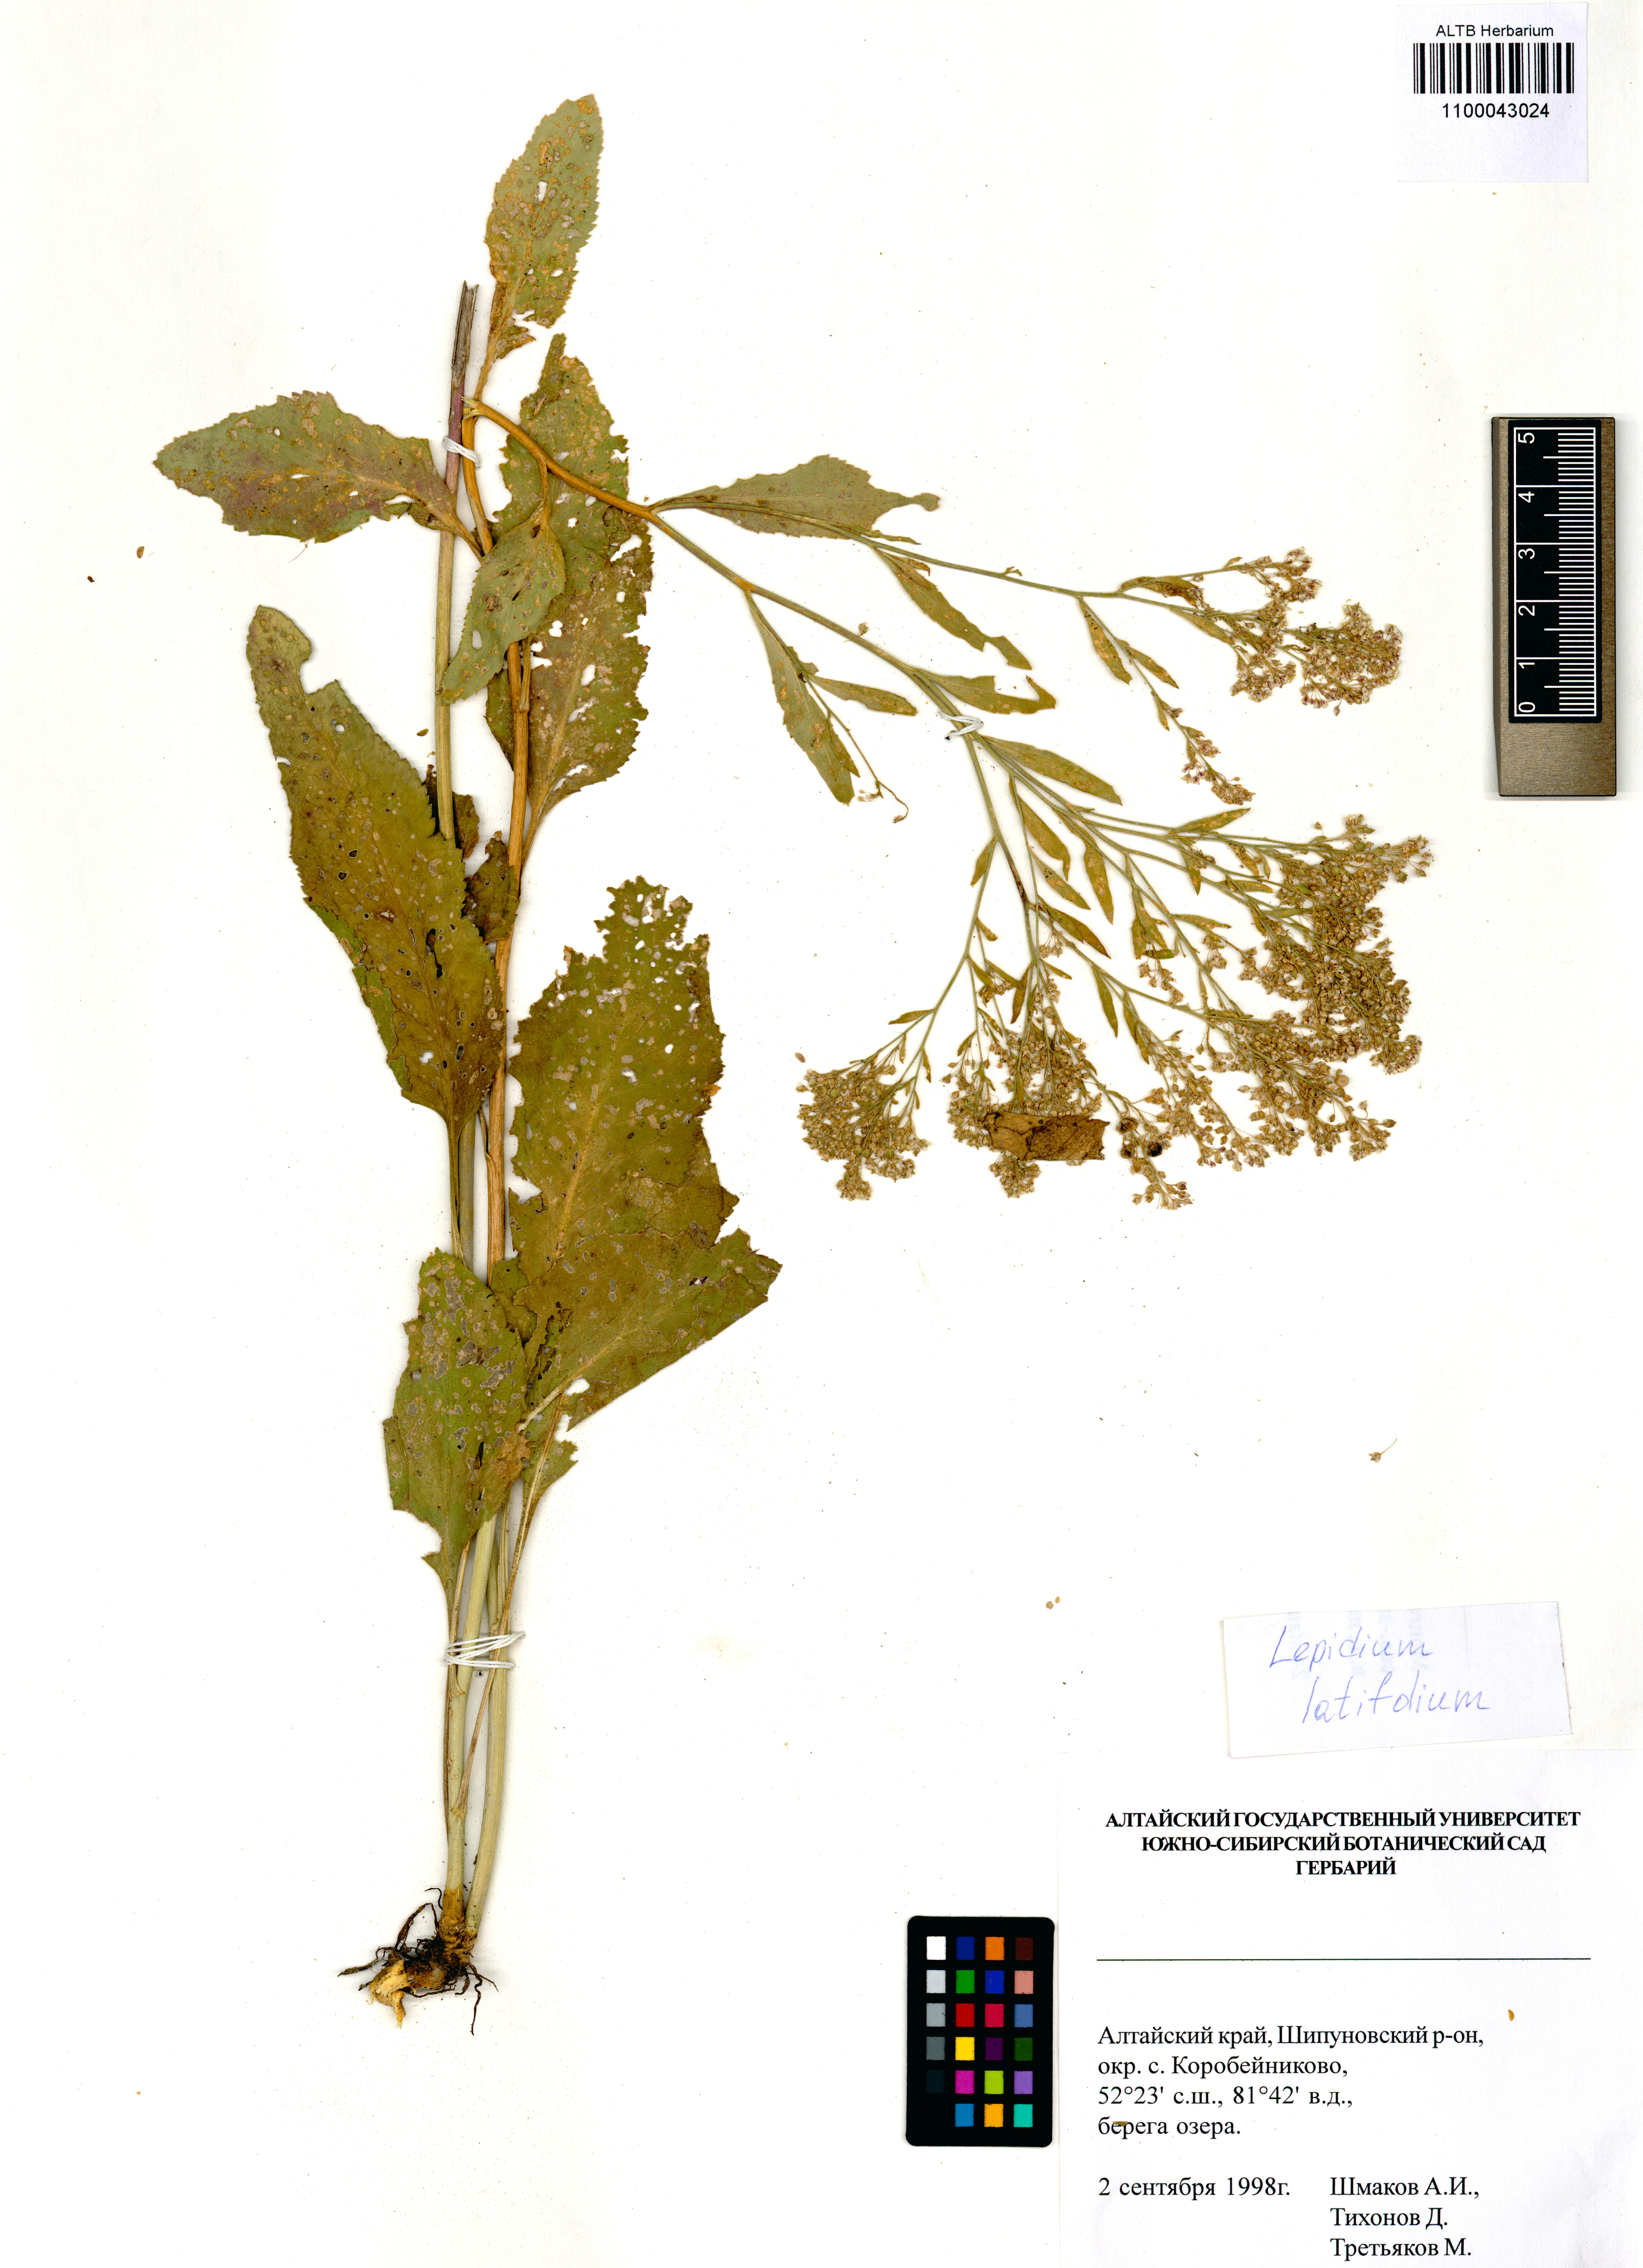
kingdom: Plantae
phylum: Tracheophyta
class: Magnoliopsida
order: Brassicales
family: Brassicaceae
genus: Lepidium
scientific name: Lepidium latifolium
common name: Dittander
